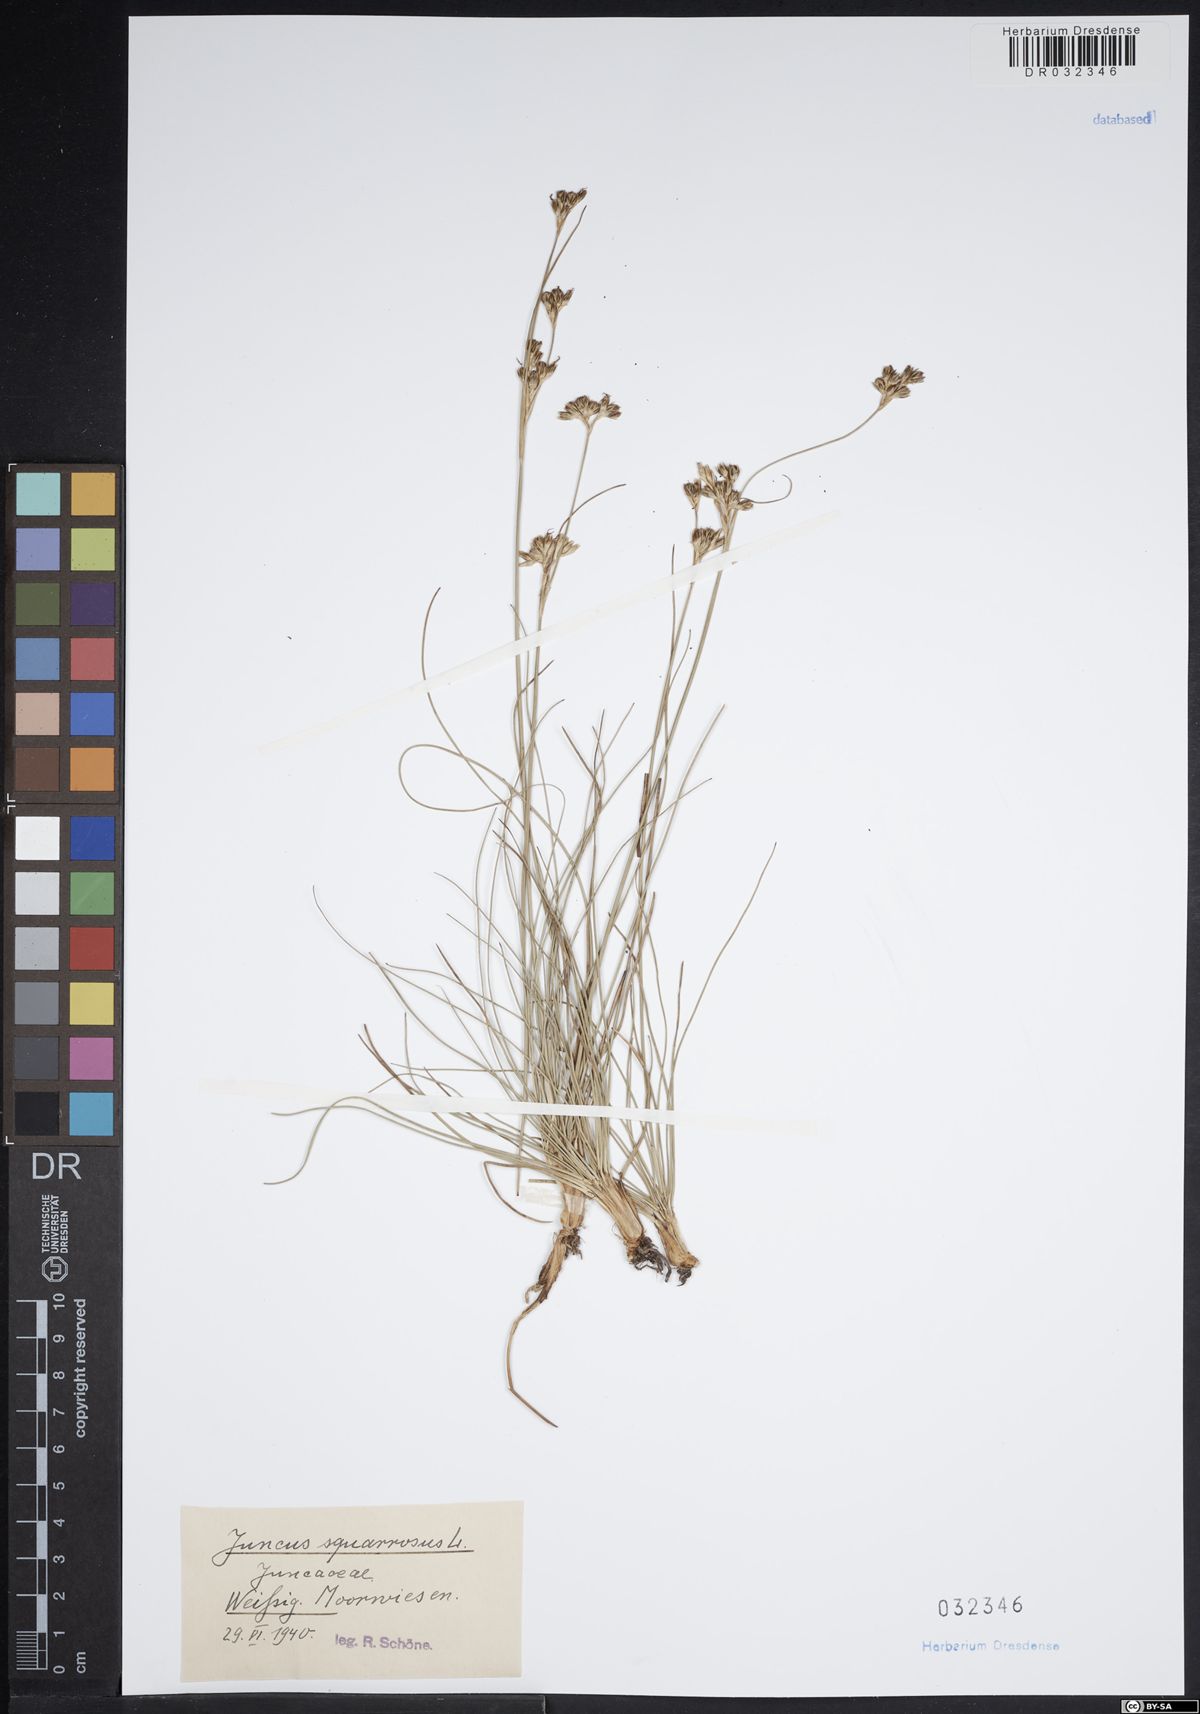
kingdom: Plantae
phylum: Tracheophyta
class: Liliopsida
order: Poales
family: Juncaceae
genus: Juncus
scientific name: Juncus squarrosus
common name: Heath rush
